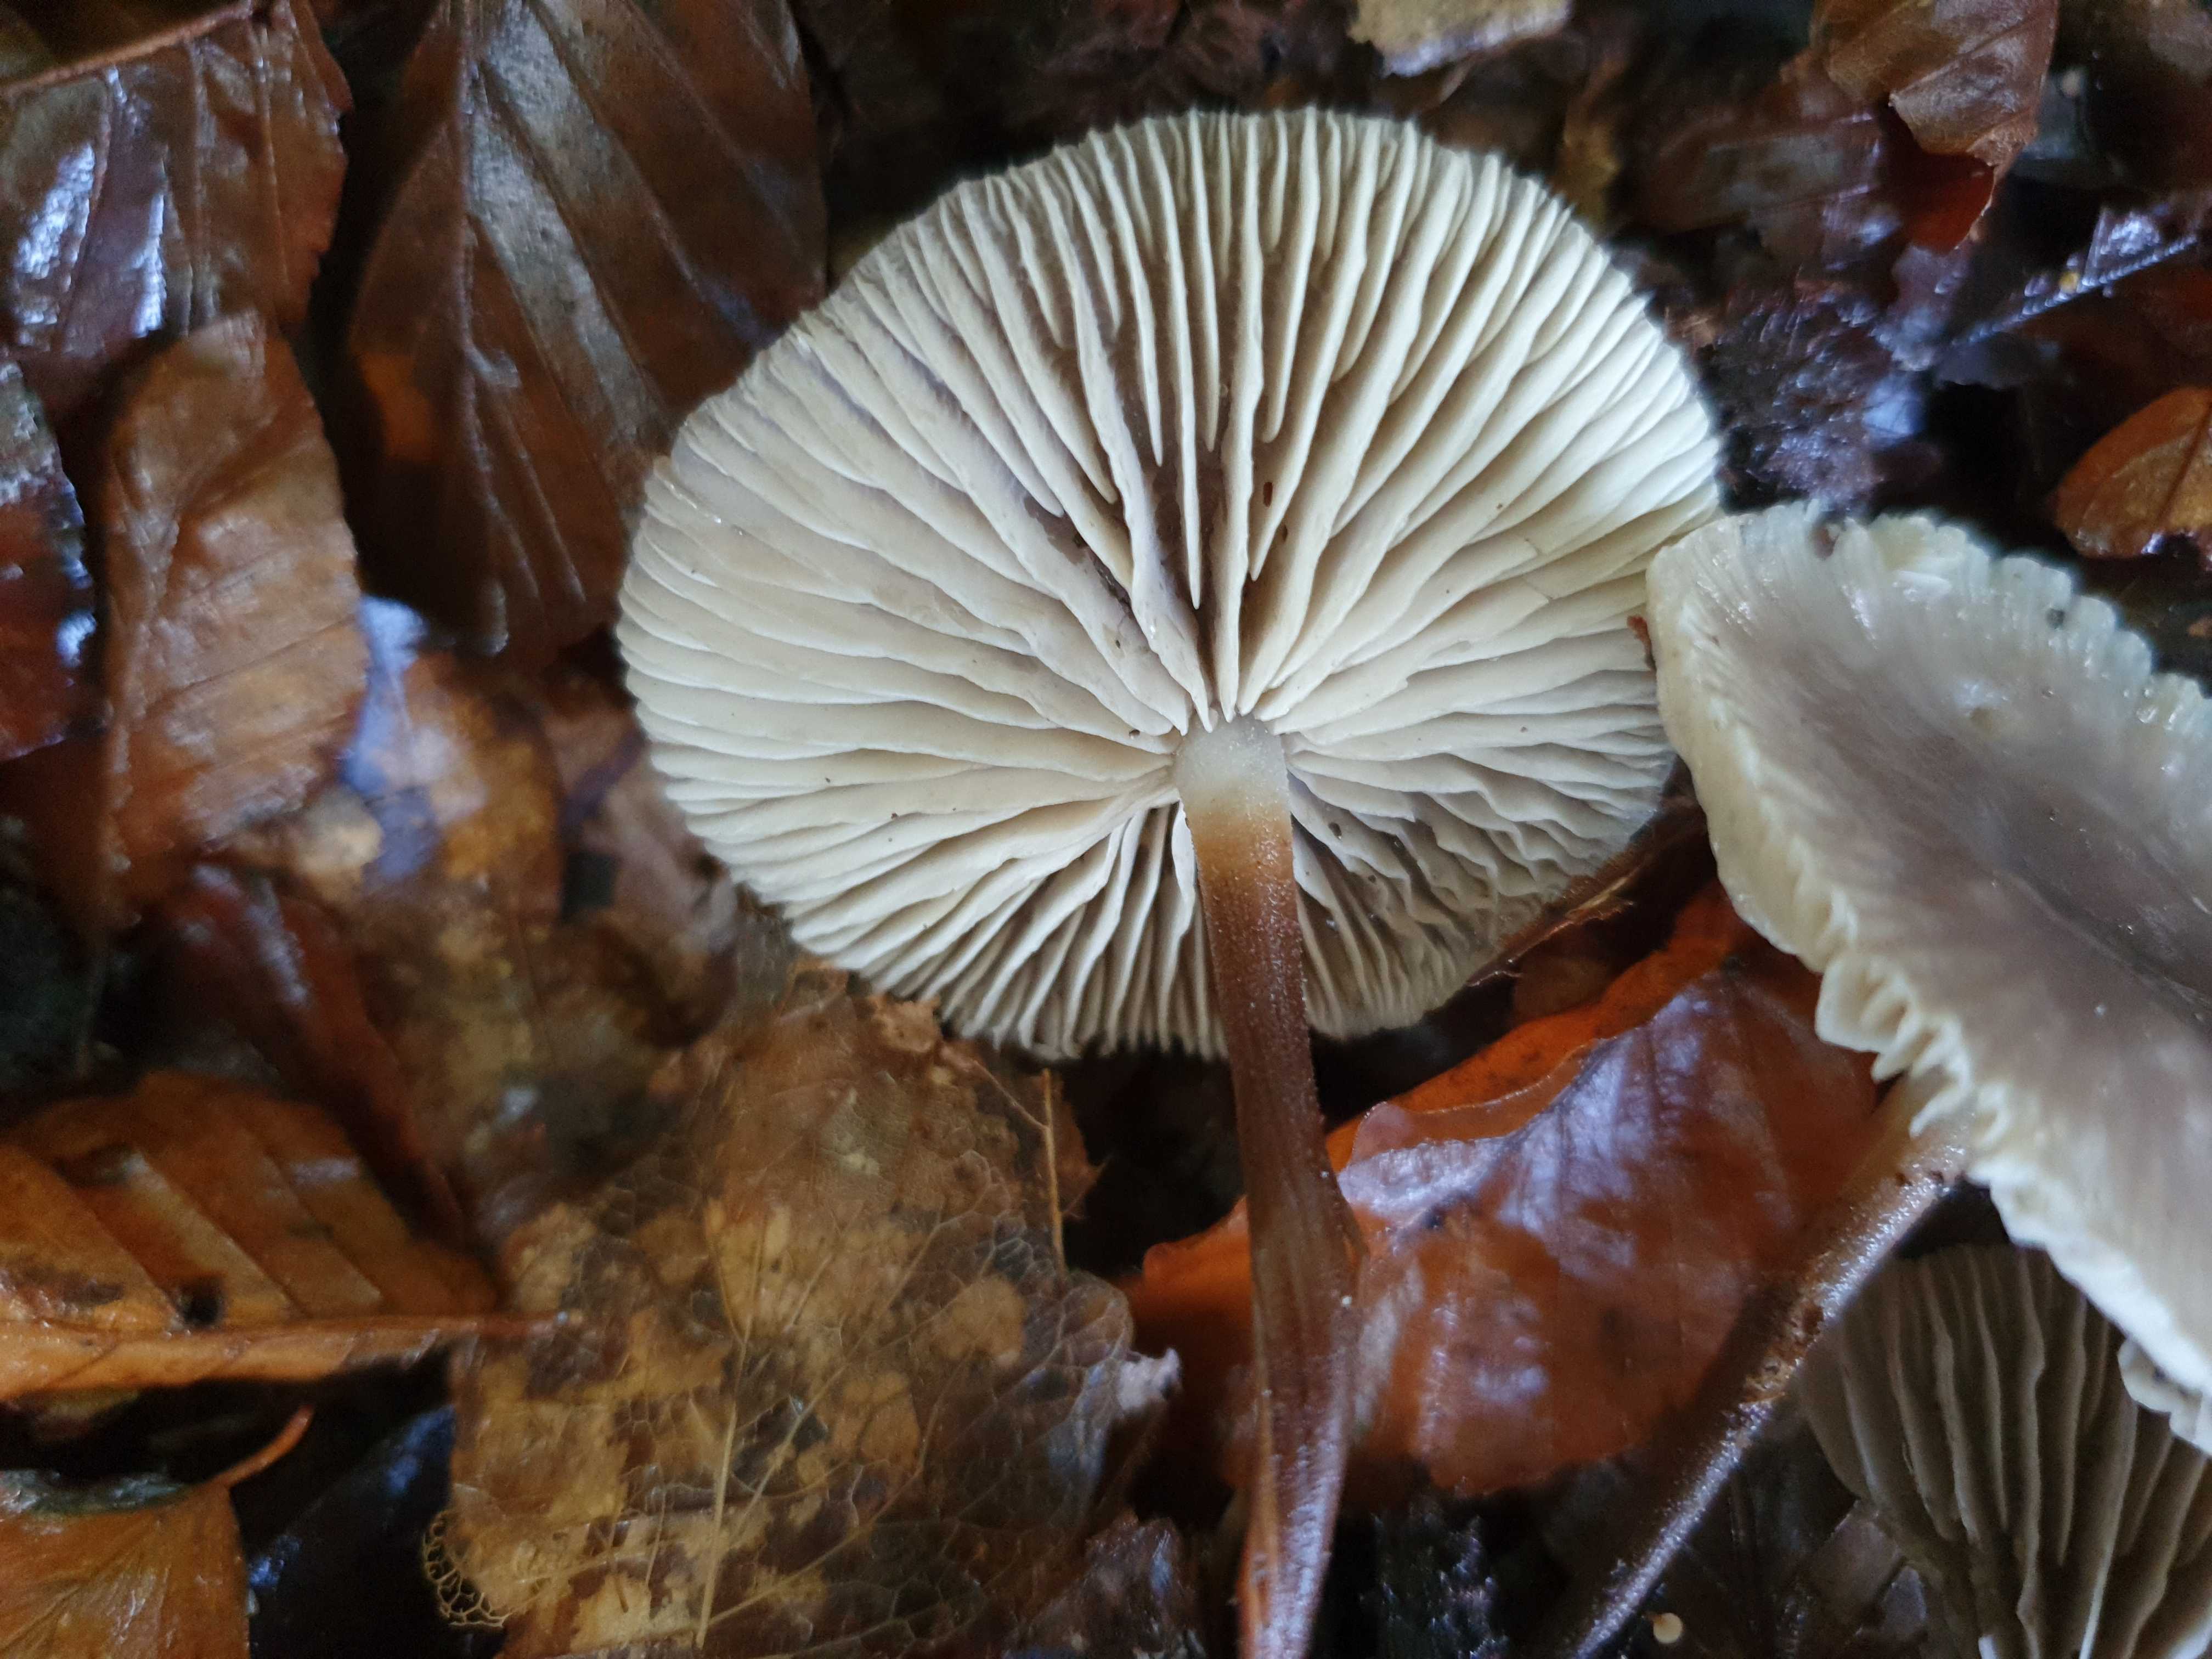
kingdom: Fungi
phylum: Basidiomycota
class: Agaricomycetes
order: Agaricales
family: Marasmiaceae
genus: Marasmius
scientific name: Marasmius wynneae
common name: hvælvet bruskhat
